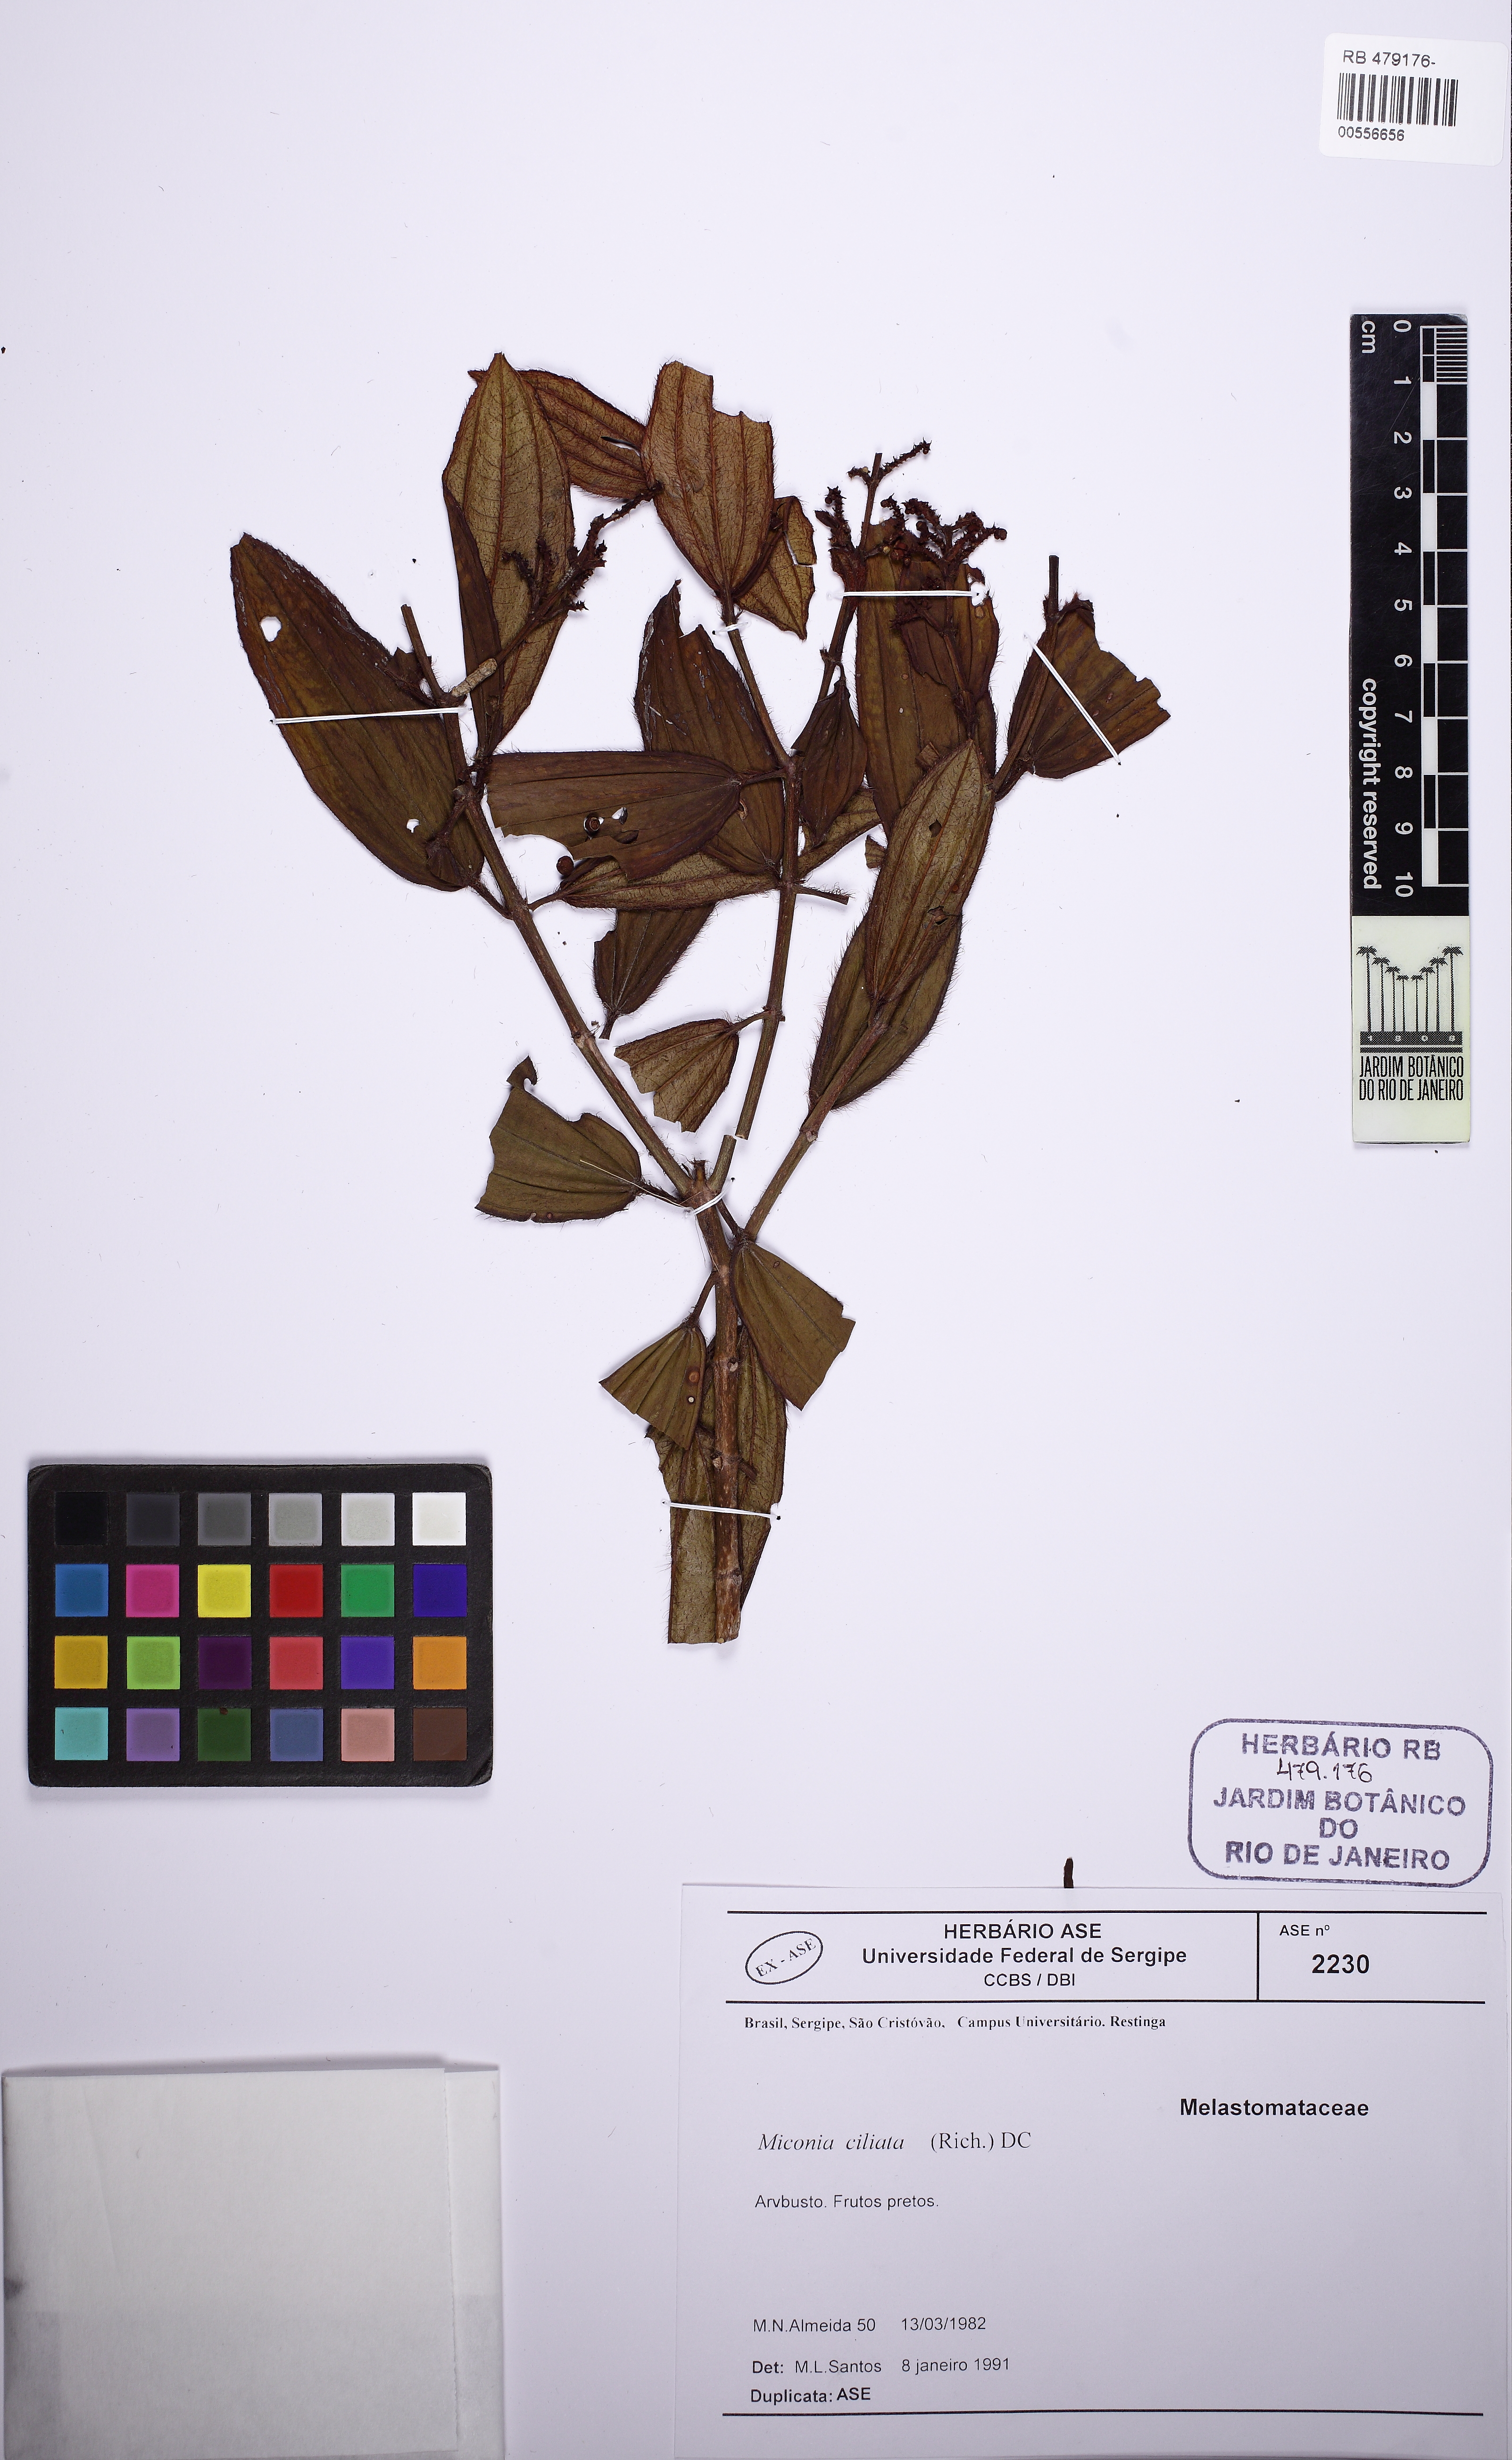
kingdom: Plantae
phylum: Tracheophyta
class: Magnoliopsida
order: Myrtales
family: Melastomataceae
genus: Miconia
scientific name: Miconia ciliata
